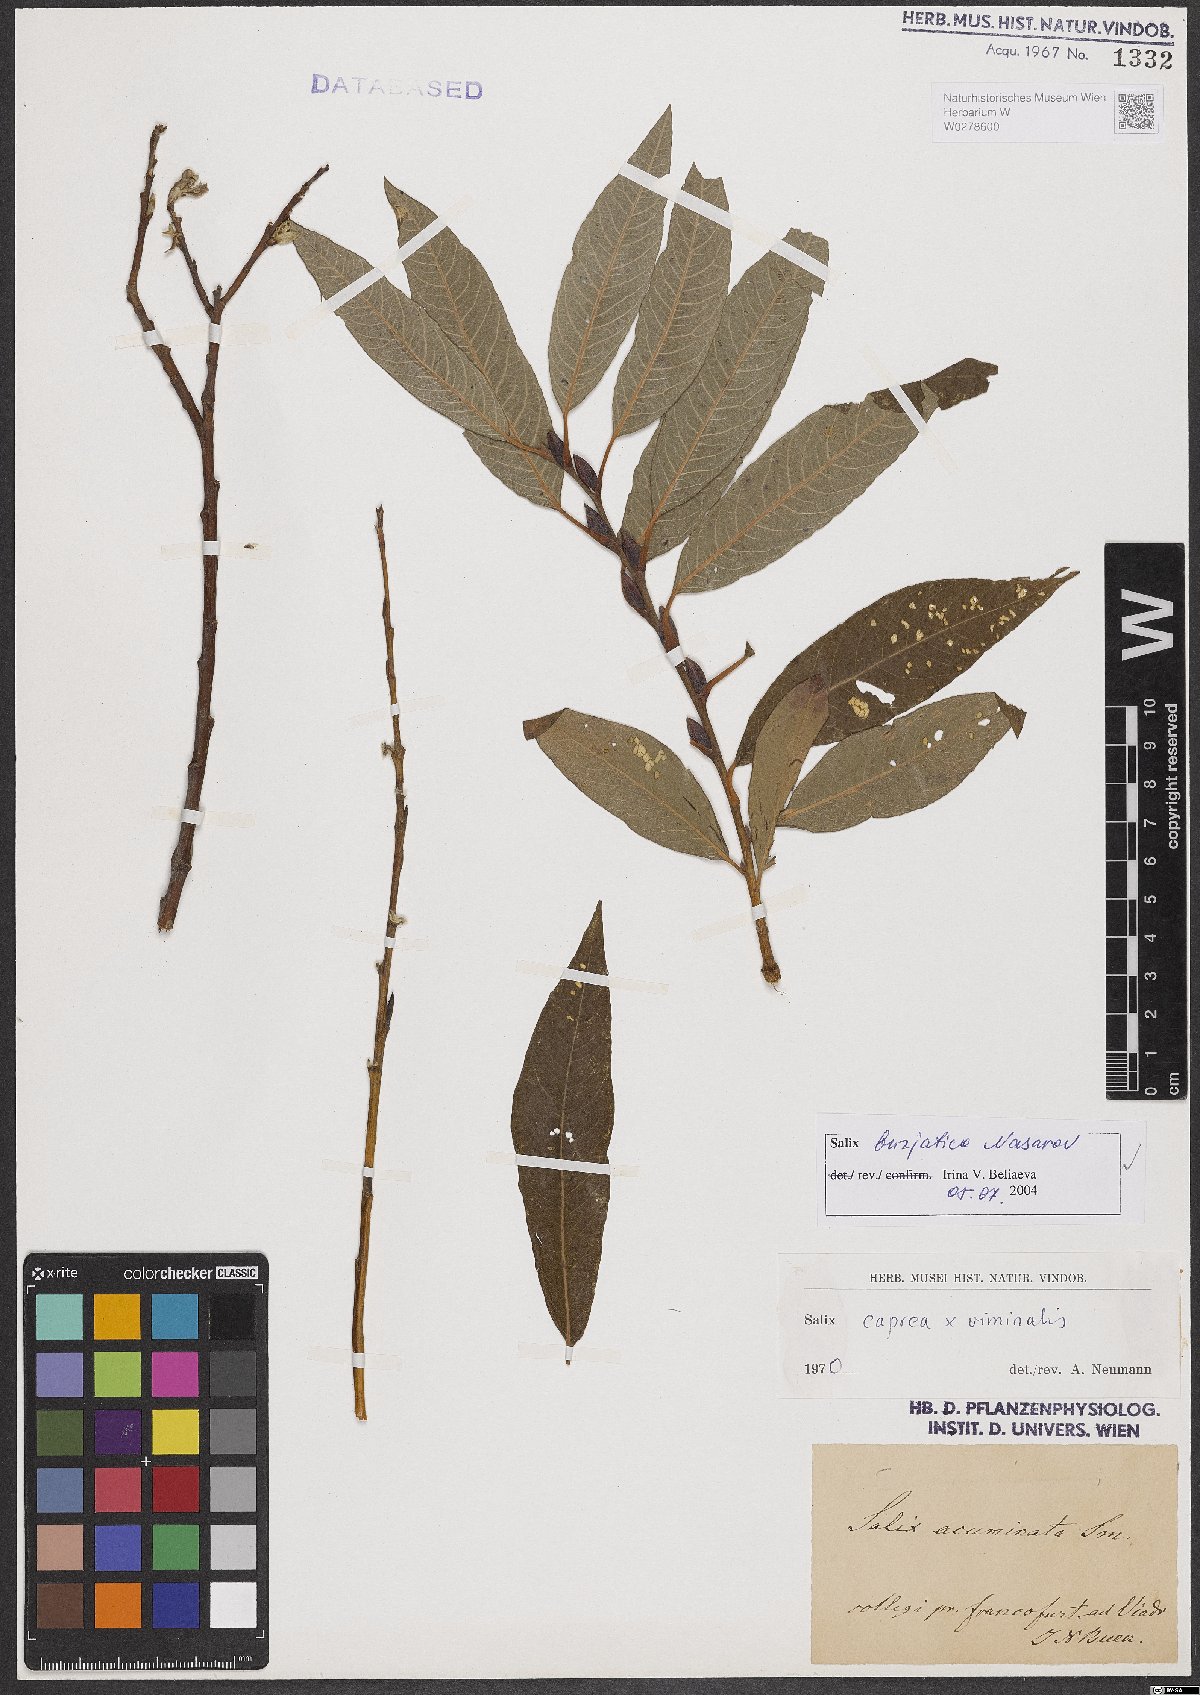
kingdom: Plantae
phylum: Tracheophyta
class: Magnoliopsida
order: Malpighiales
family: Salicaceae
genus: Salix
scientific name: Salix gmelinii
